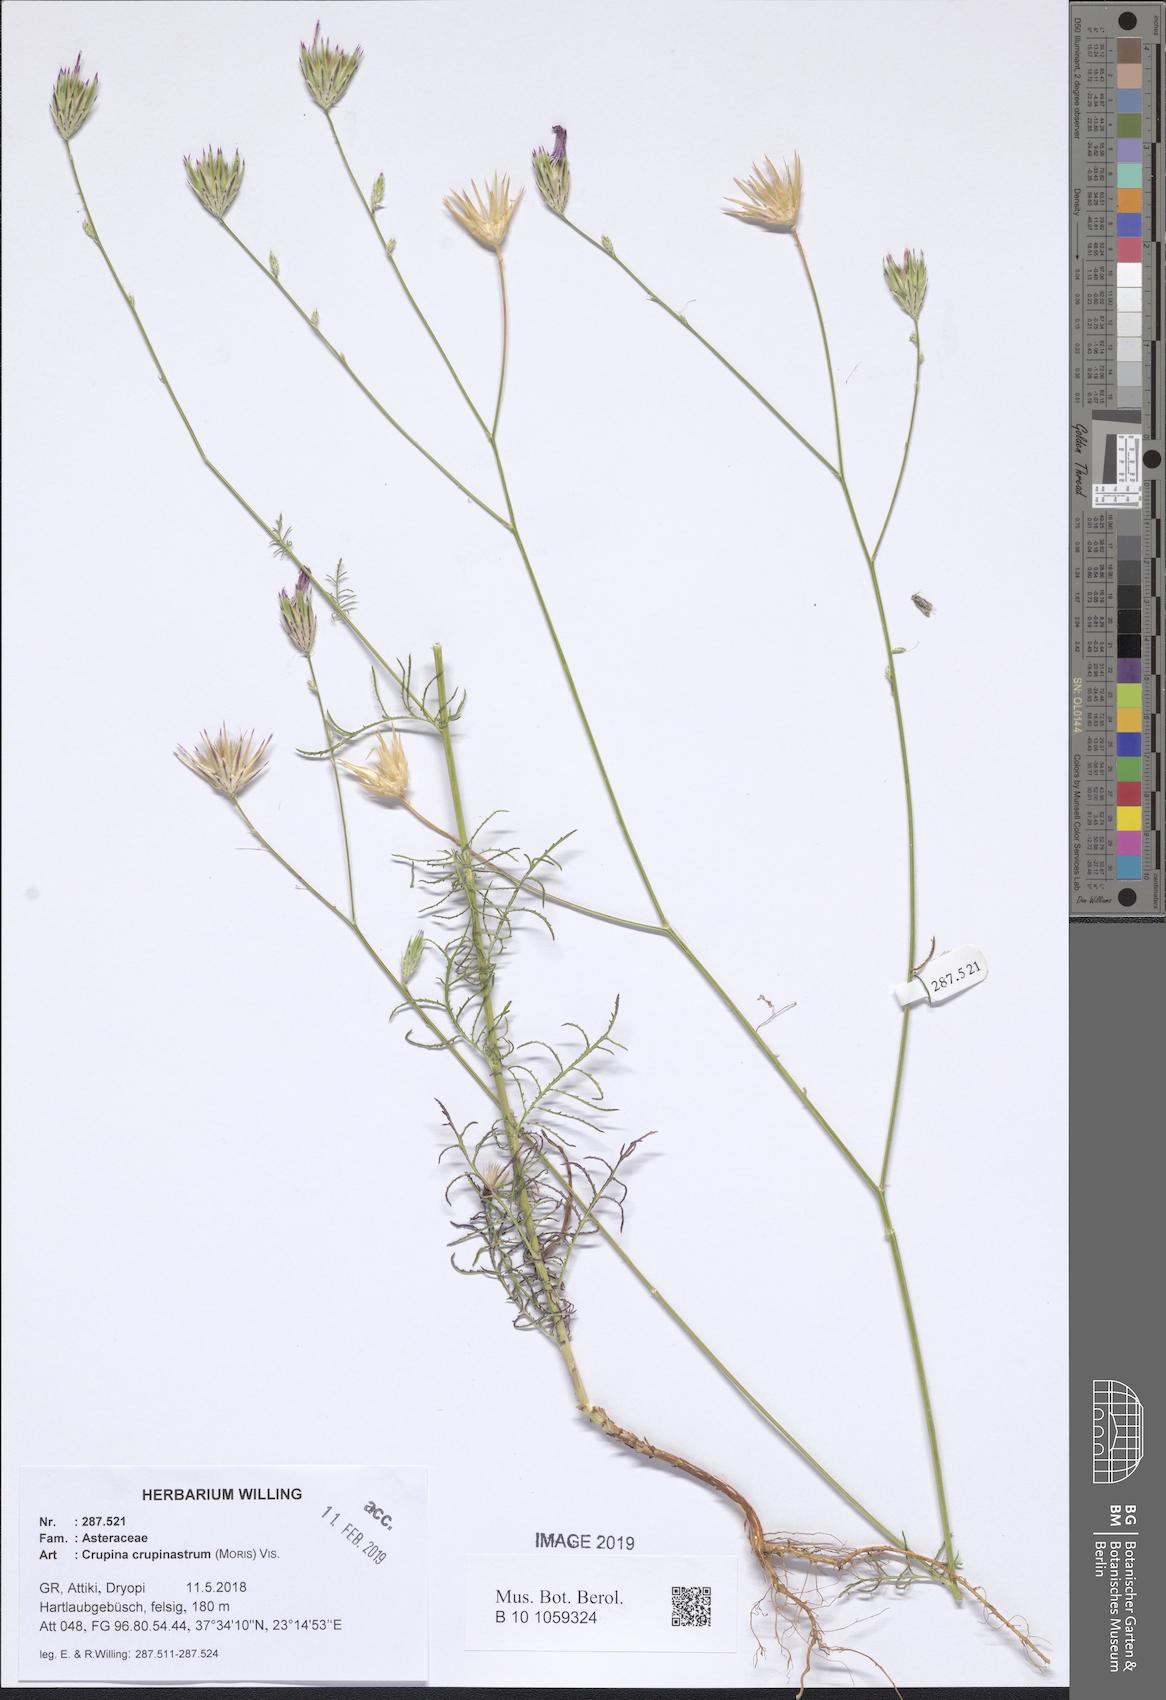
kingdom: Plantae
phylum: Tracheophyta
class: Magnoliopsida
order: Asterales
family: Asteraceae
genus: Crupina
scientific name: Crupina crupinastrum
